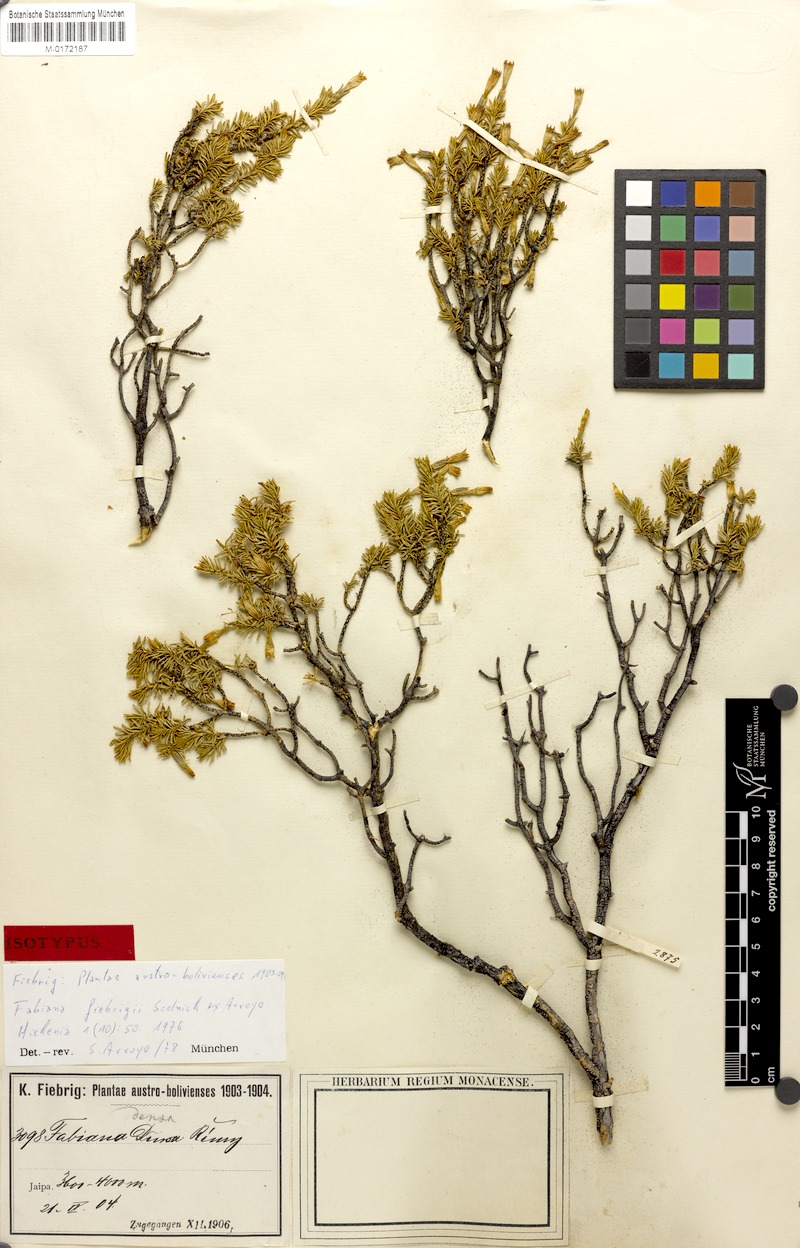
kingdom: Plantae
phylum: Tracheophyta
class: Magnoliopsida
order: Solanales
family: Solanaceae
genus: Fabiana
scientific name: Fabiana fiebrigii
